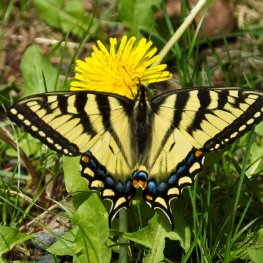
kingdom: Animalia
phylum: Arthropoda
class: Insecta
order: Lepidoptera
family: Papilionidae
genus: Pterourus
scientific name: Pterourus canadensis
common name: Canadian Tiger Swallowtail
